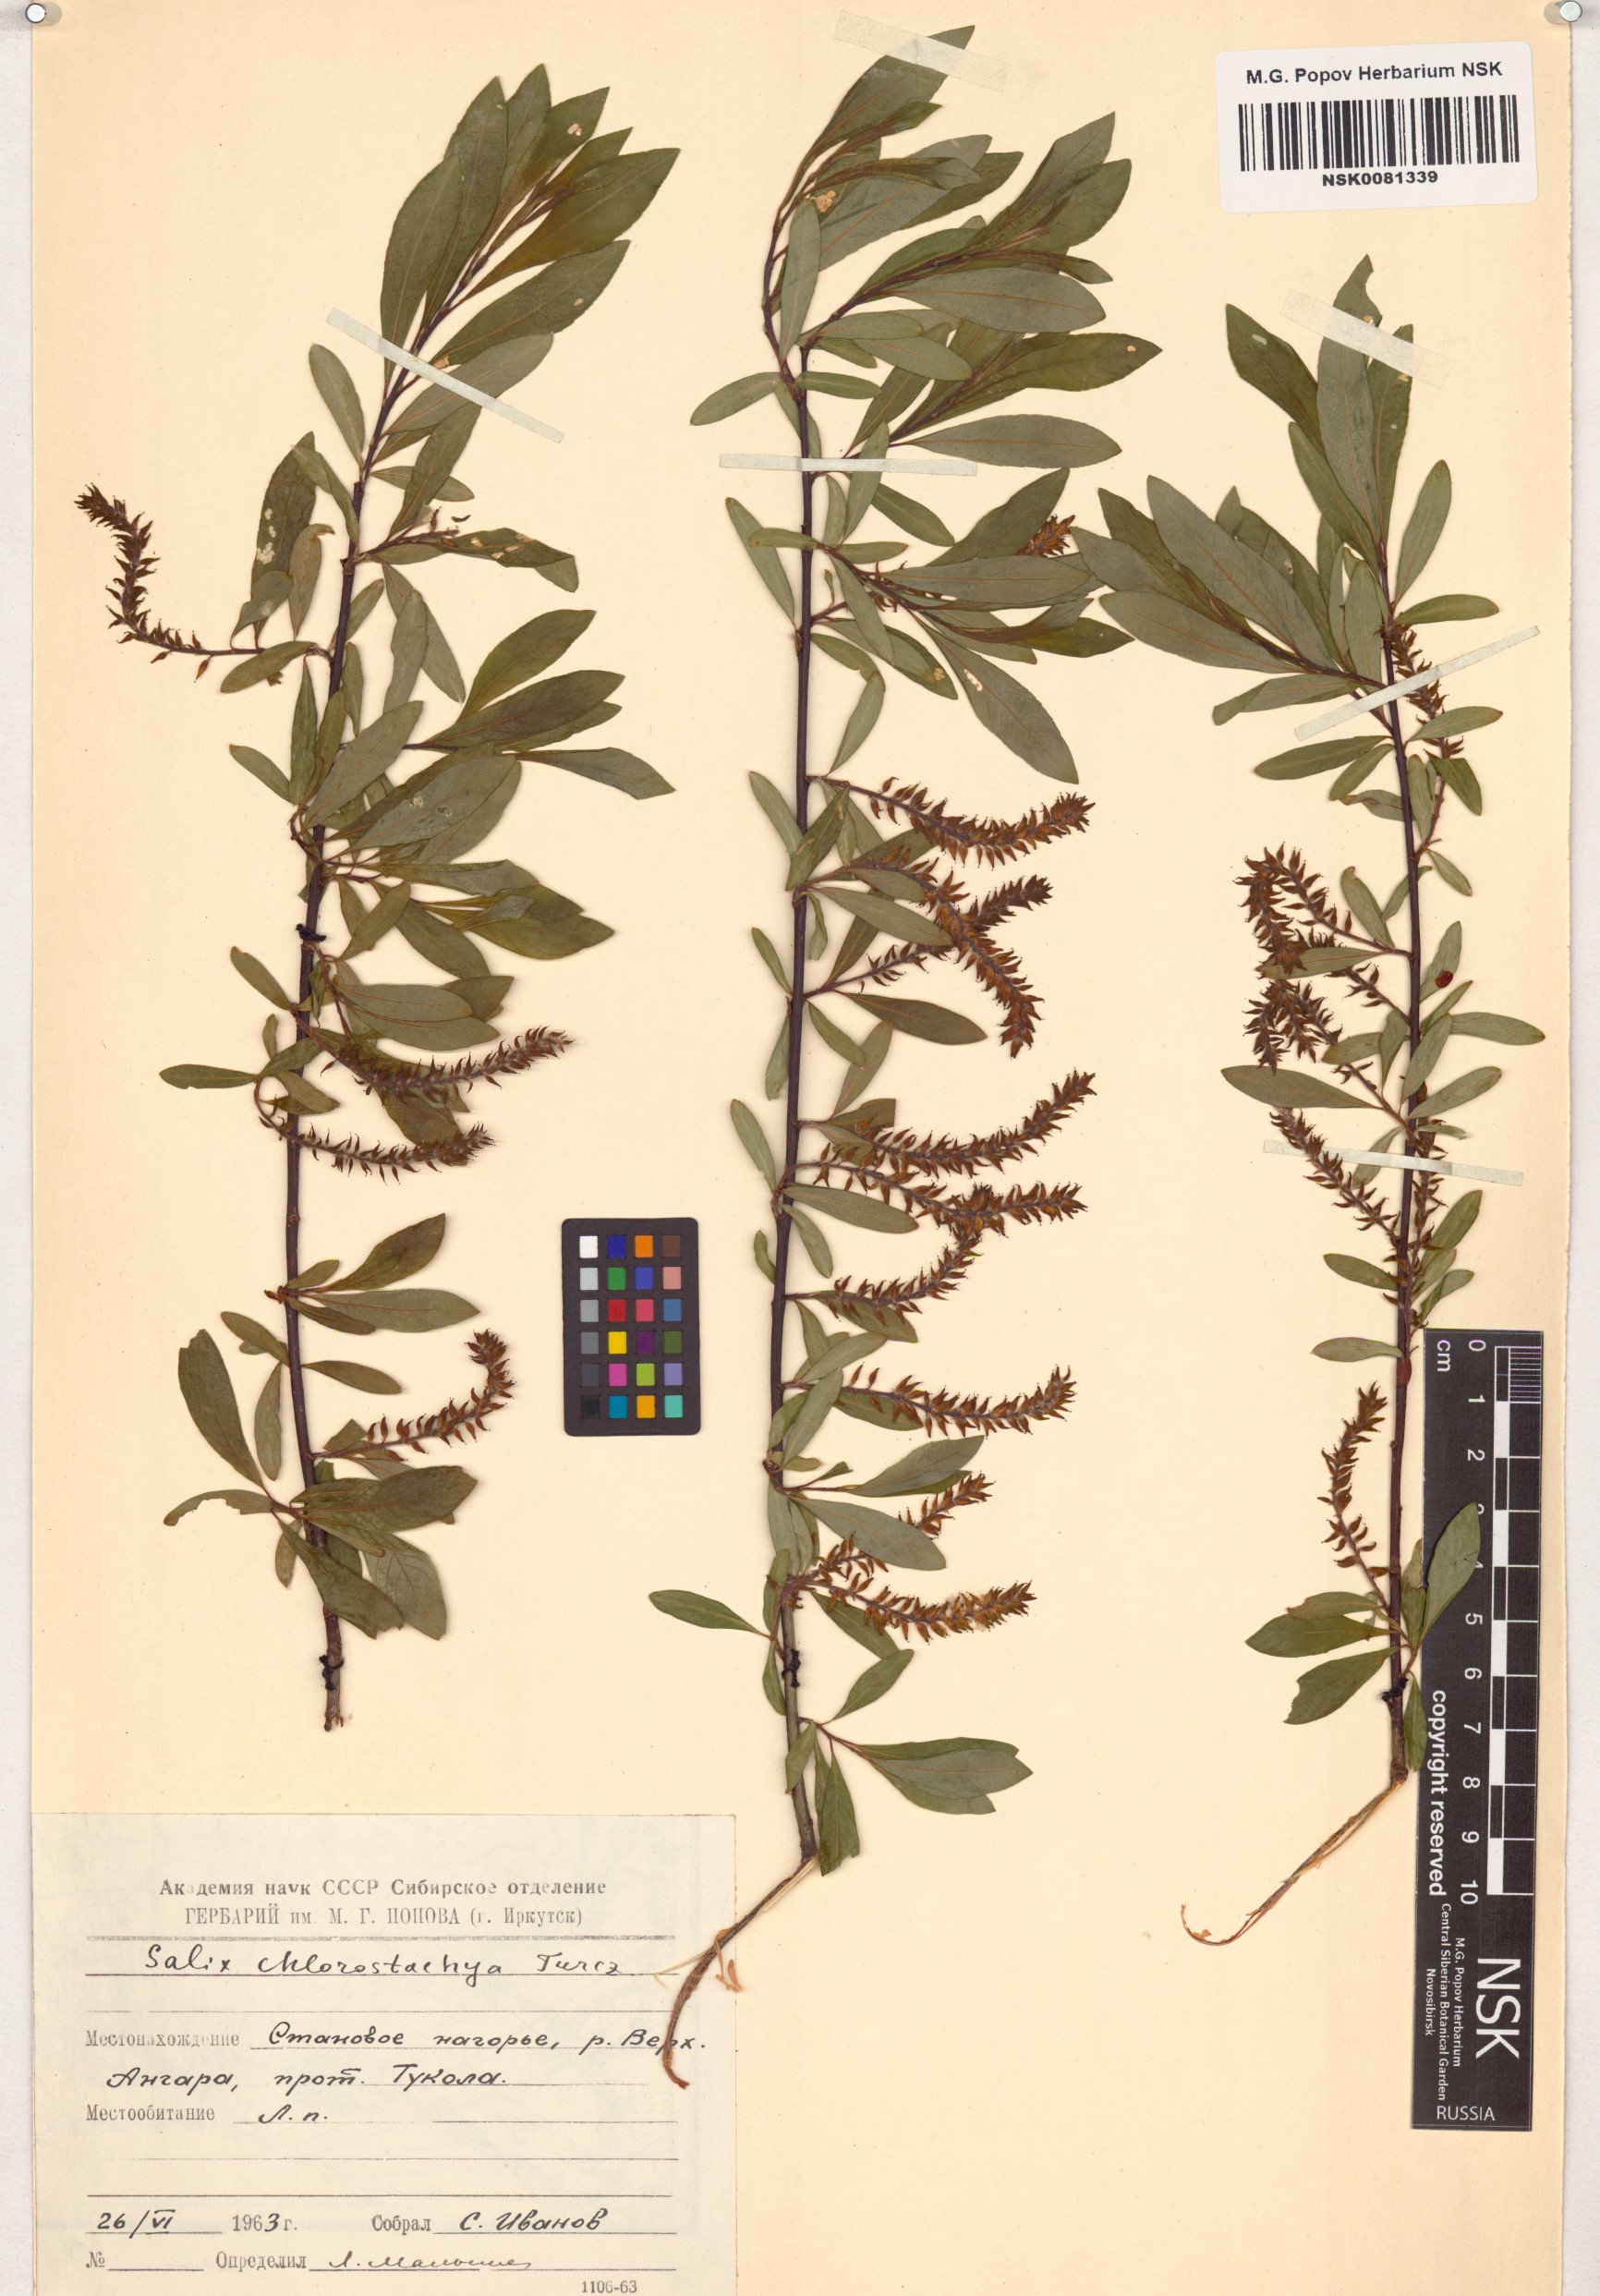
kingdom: Plantae
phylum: Tracheophyta
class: Magnoliopsida
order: Malpighiales
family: Salicaceae
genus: Salix
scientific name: Salix rhamnifolia
